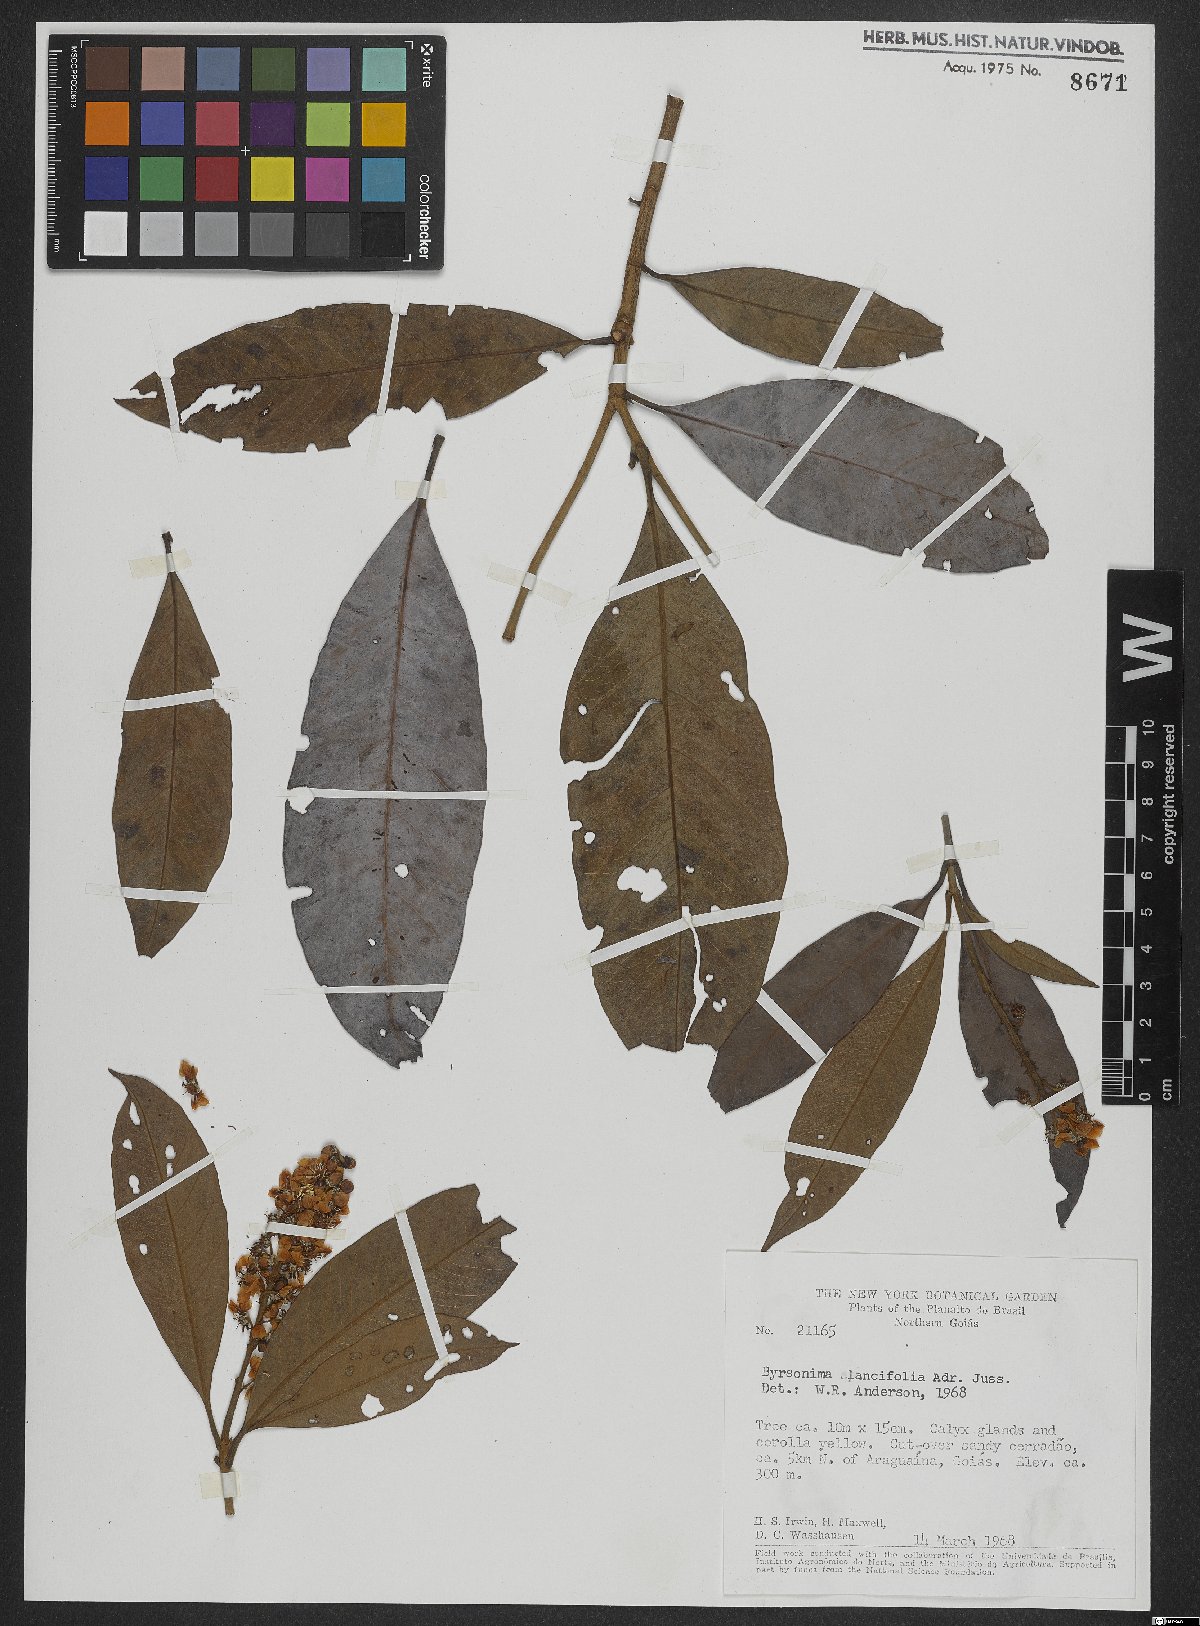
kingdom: Plantae
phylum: Tracheophyta
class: Magnoliopsida
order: Malpighiales
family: Malpighiaceae
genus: Byrsonima
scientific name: Byrsonima lancifolia
